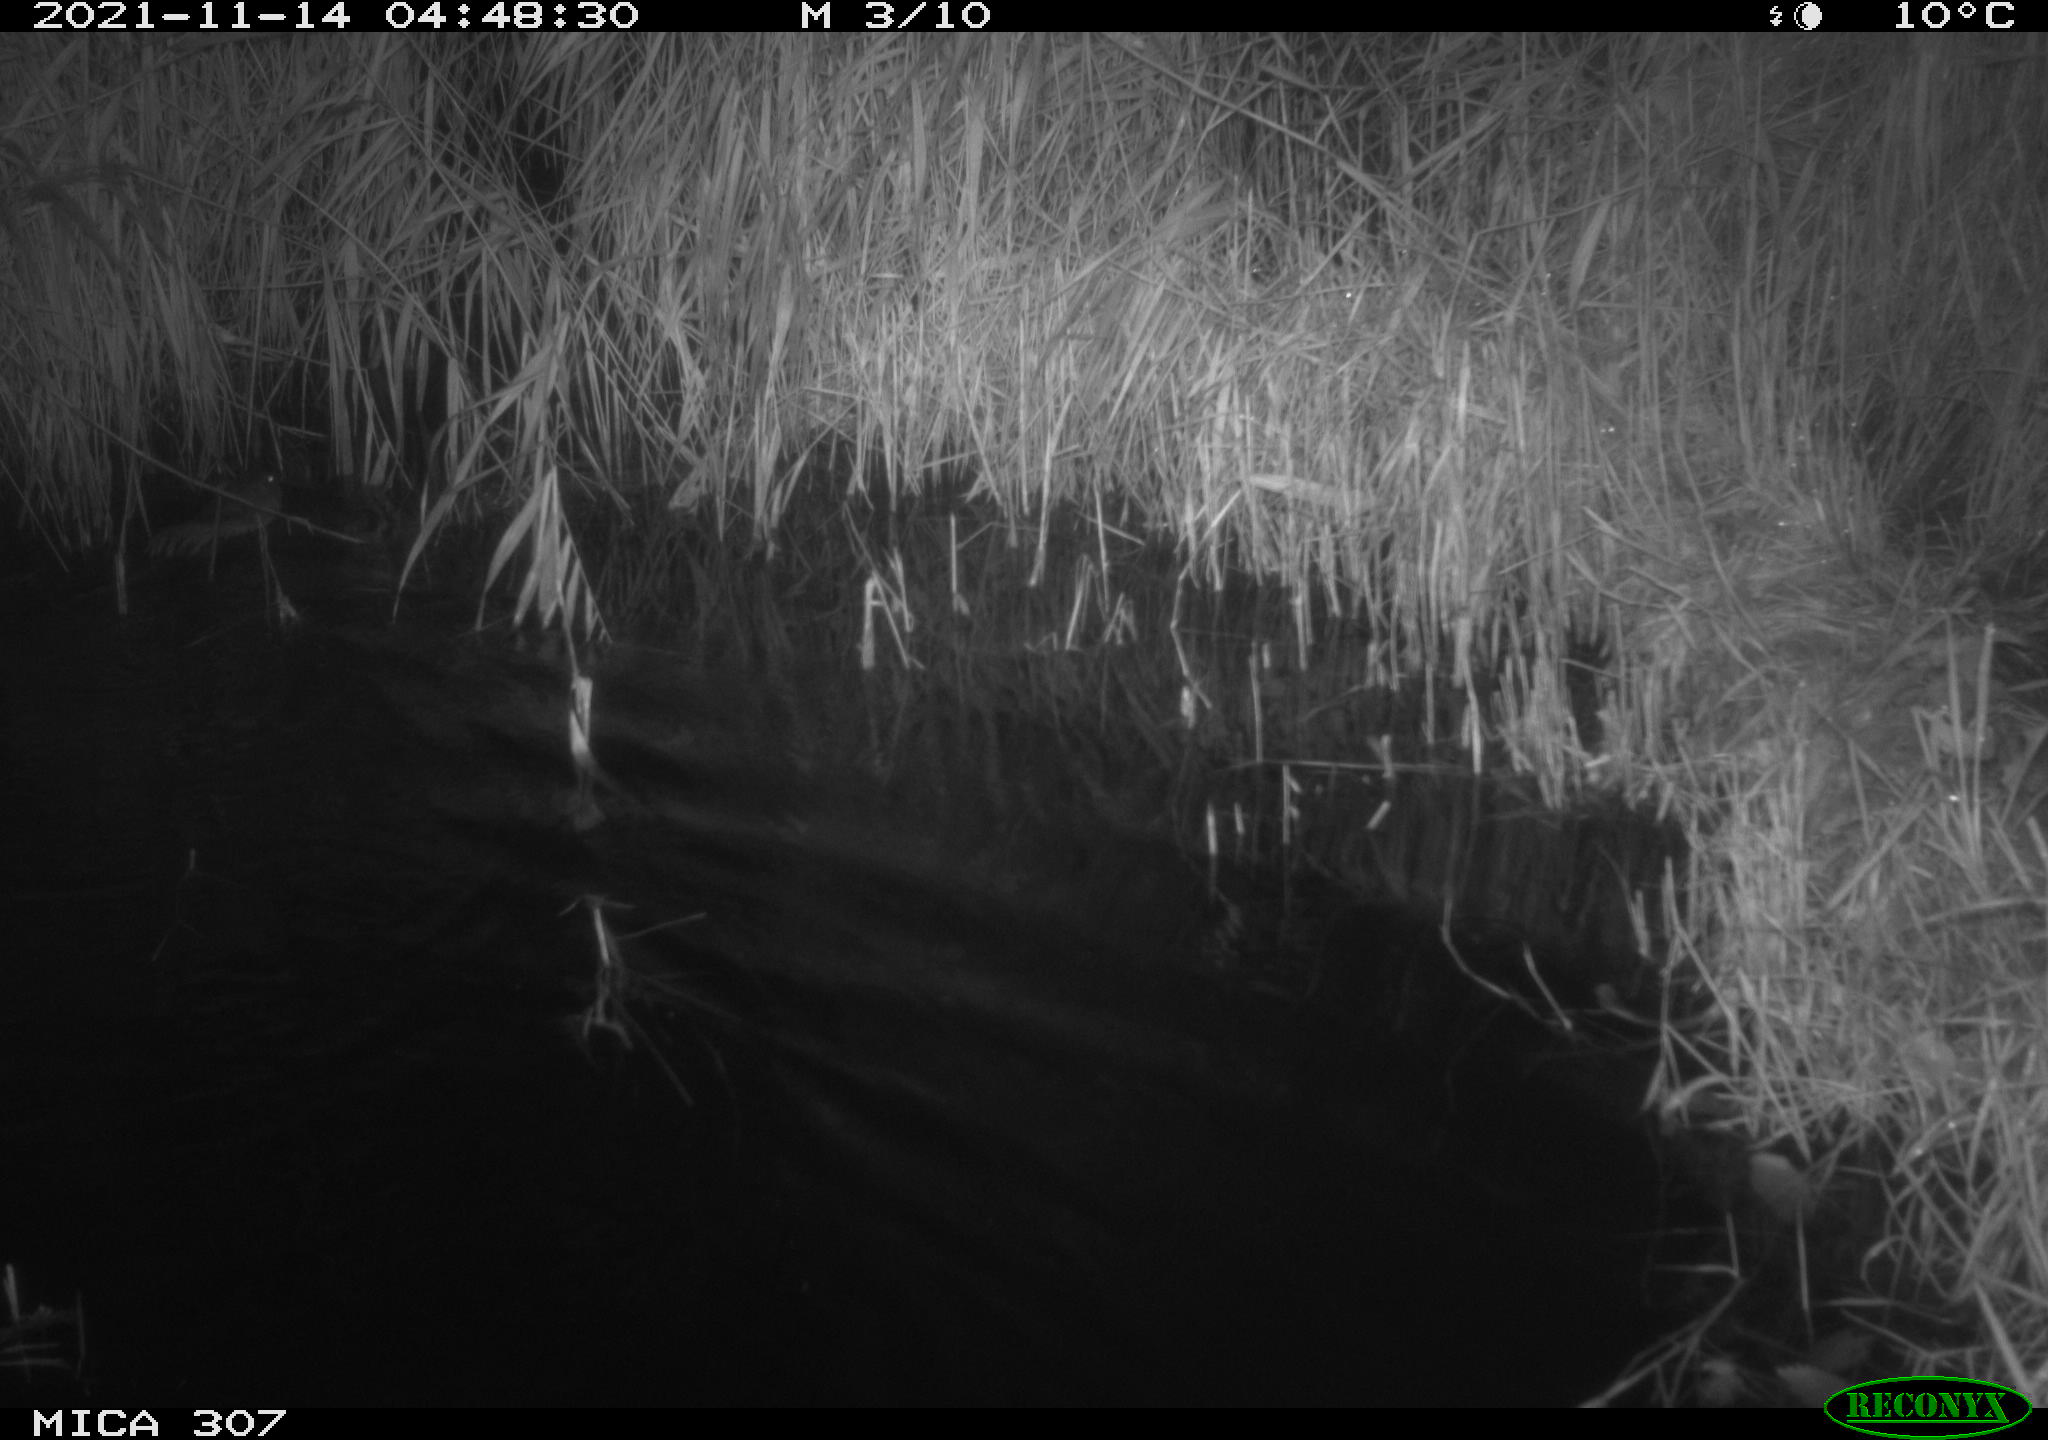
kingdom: Animalia
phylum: Chordata
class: Mammalia
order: Rodentia
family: Cricetidae
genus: Ondatra
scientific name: Ondatra zibethicus
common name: Muskrat
